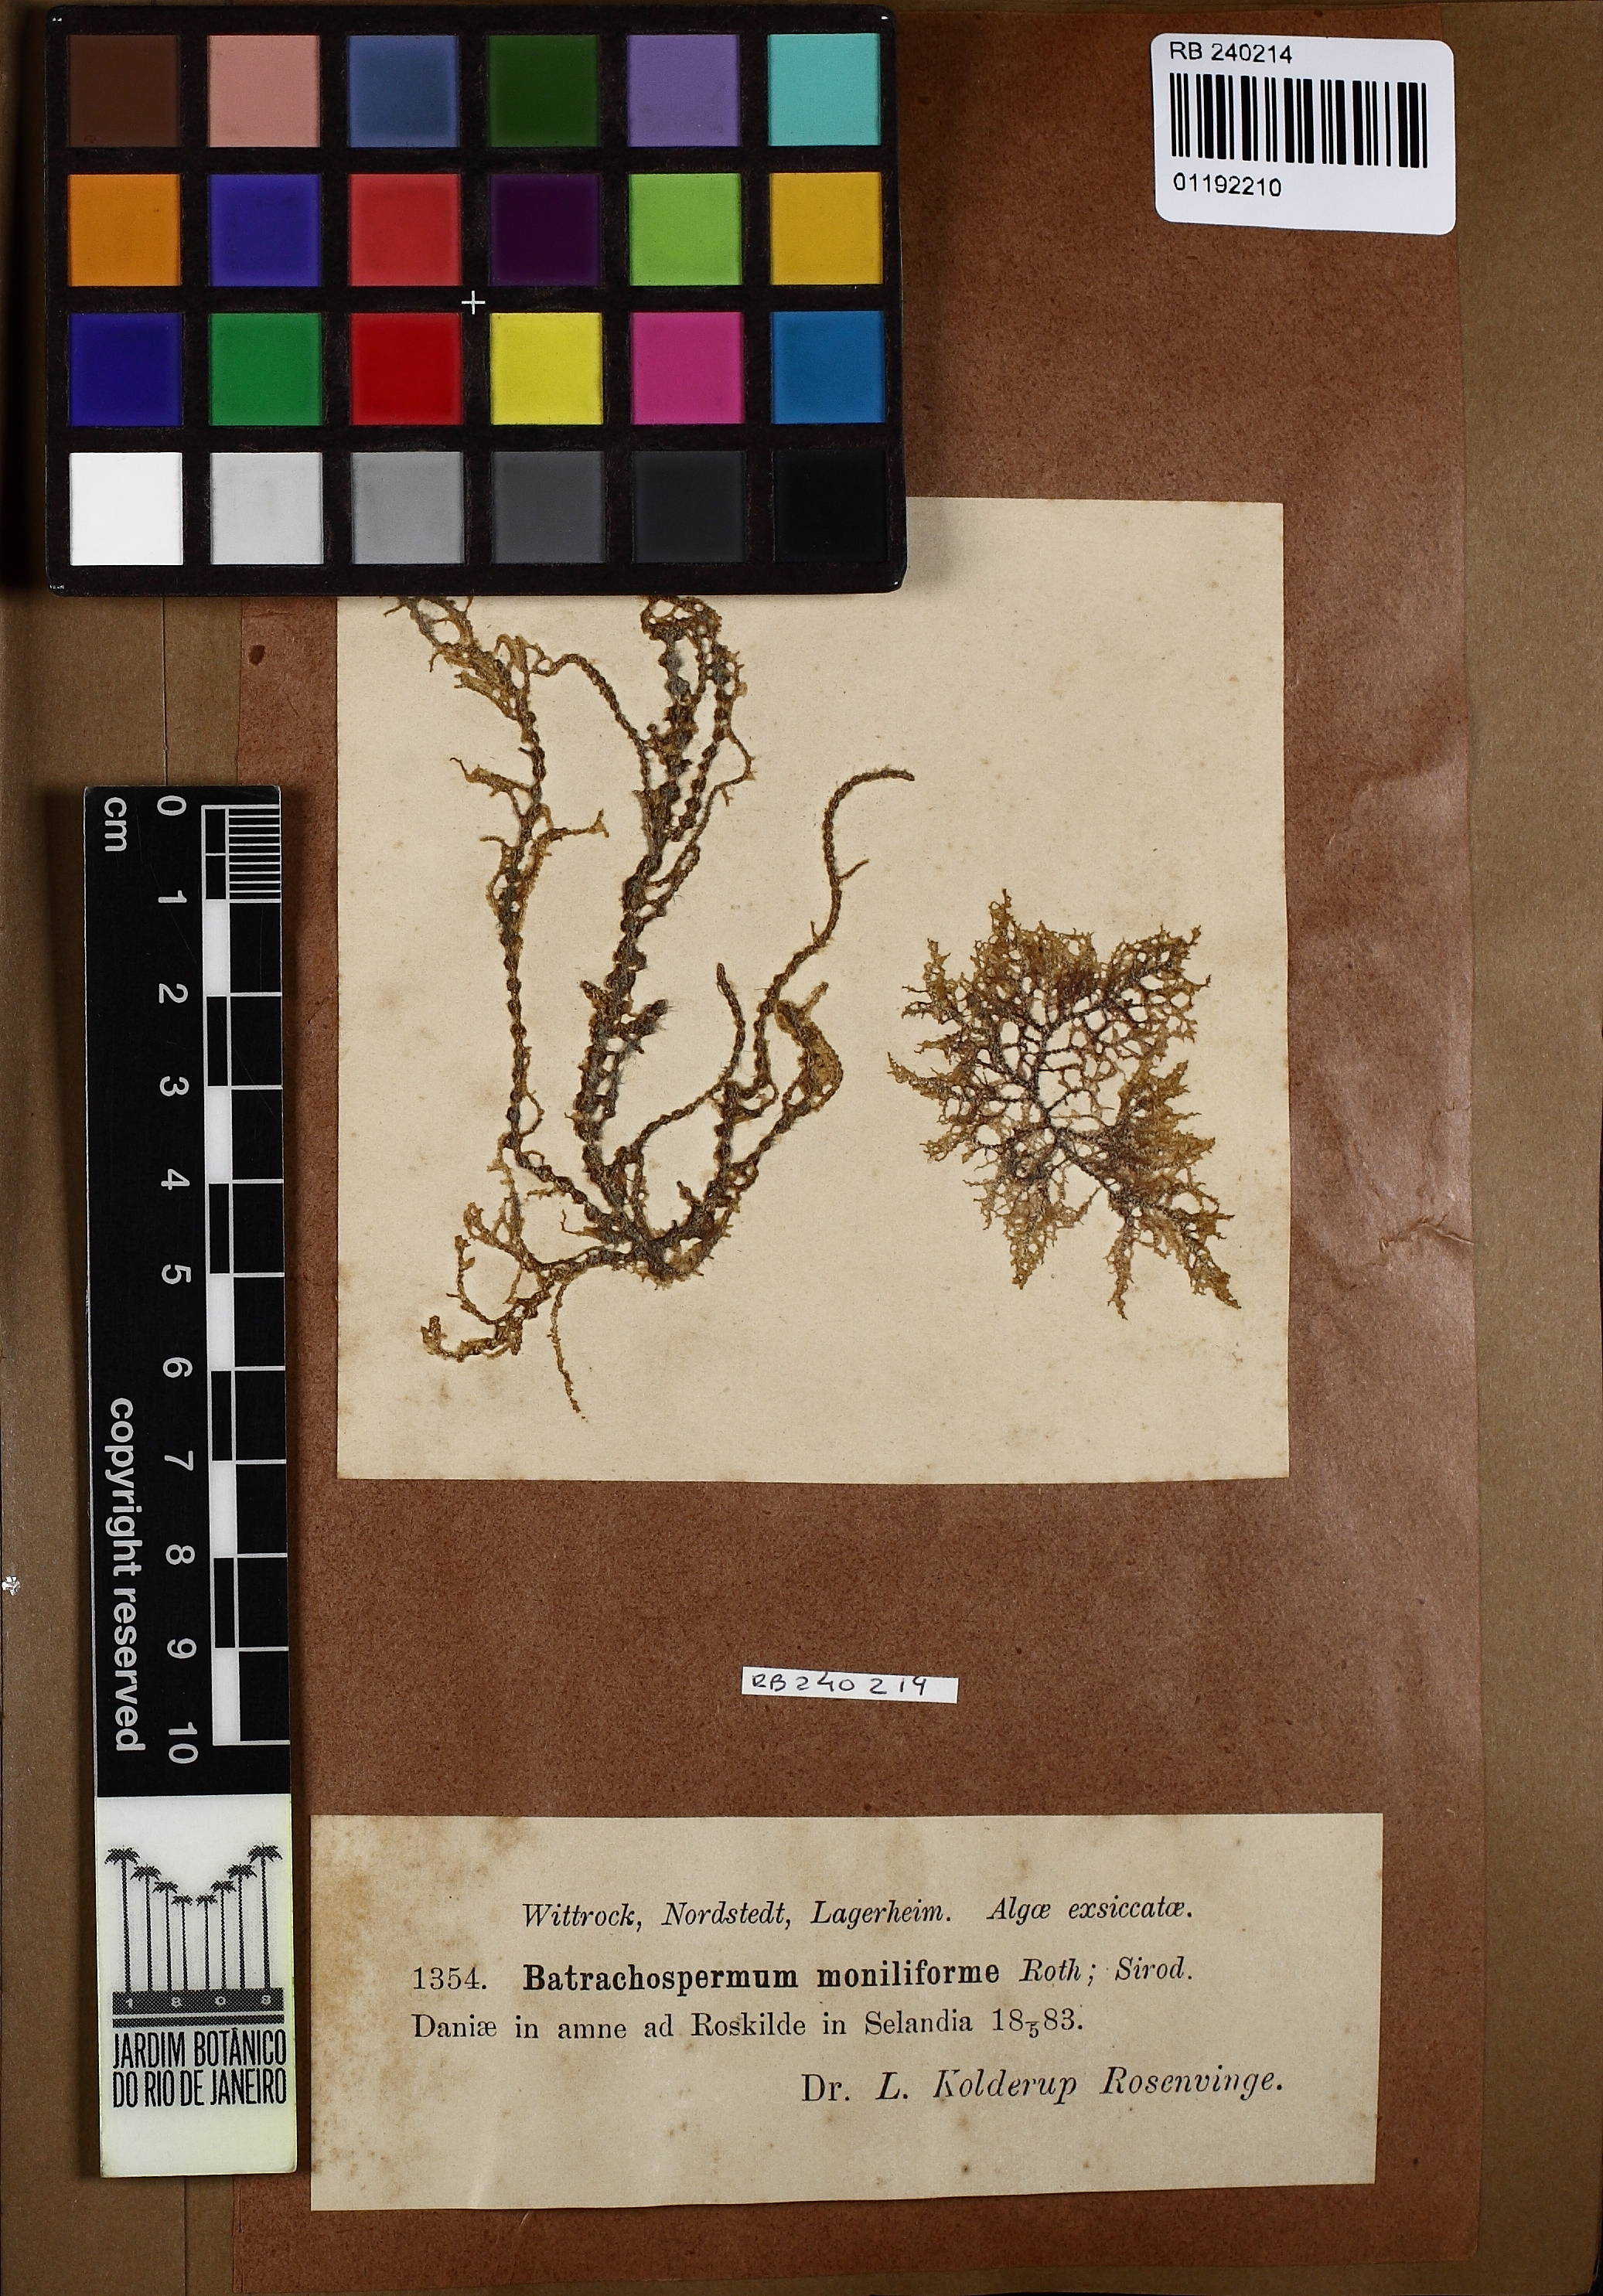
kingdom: Plantae
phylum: Rhodophyta
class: Florideophyceae
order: Batrachospermales
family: Batrachospermaceae
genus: Batrachospermum
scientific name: Batrachospermum gelatinosum
